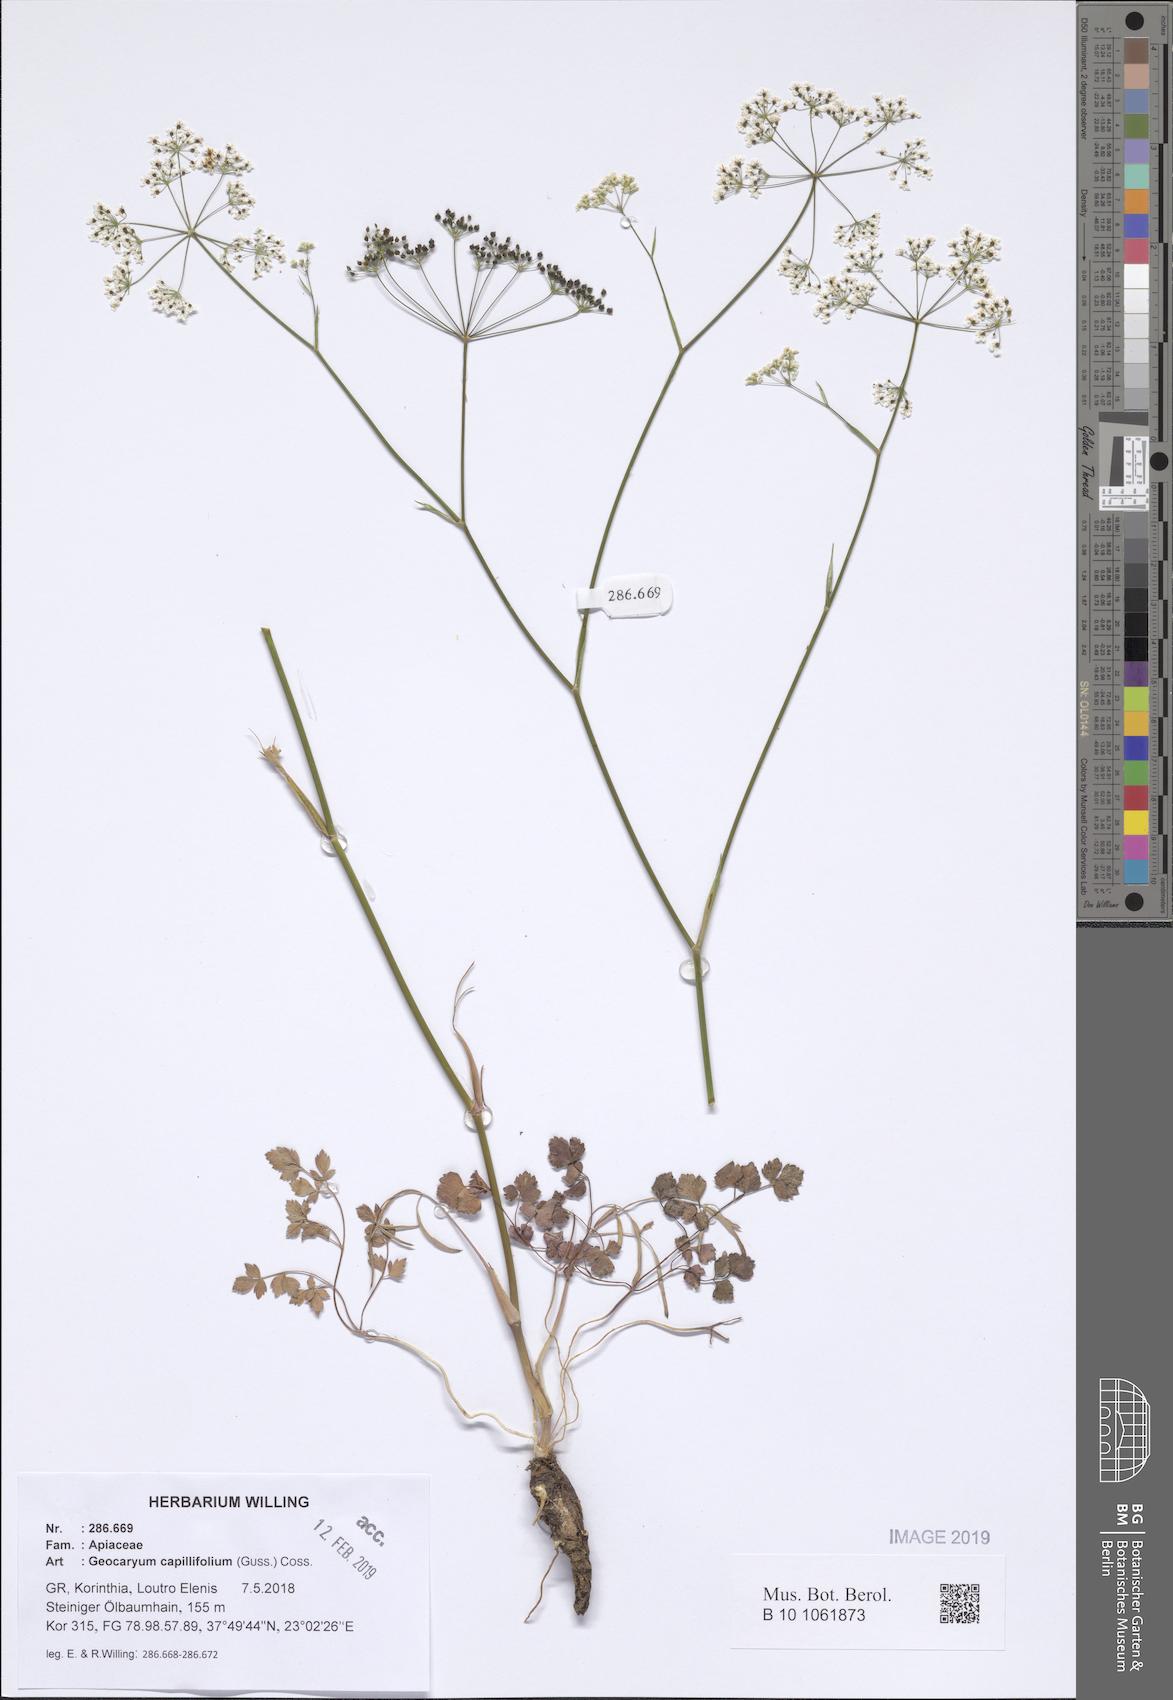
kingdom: Plantae
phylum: Tracheophyta
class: Magnoliopsida
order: Apiales
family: Apiaceae
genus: Geocaryum
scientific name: Geocaryum capillifolium
